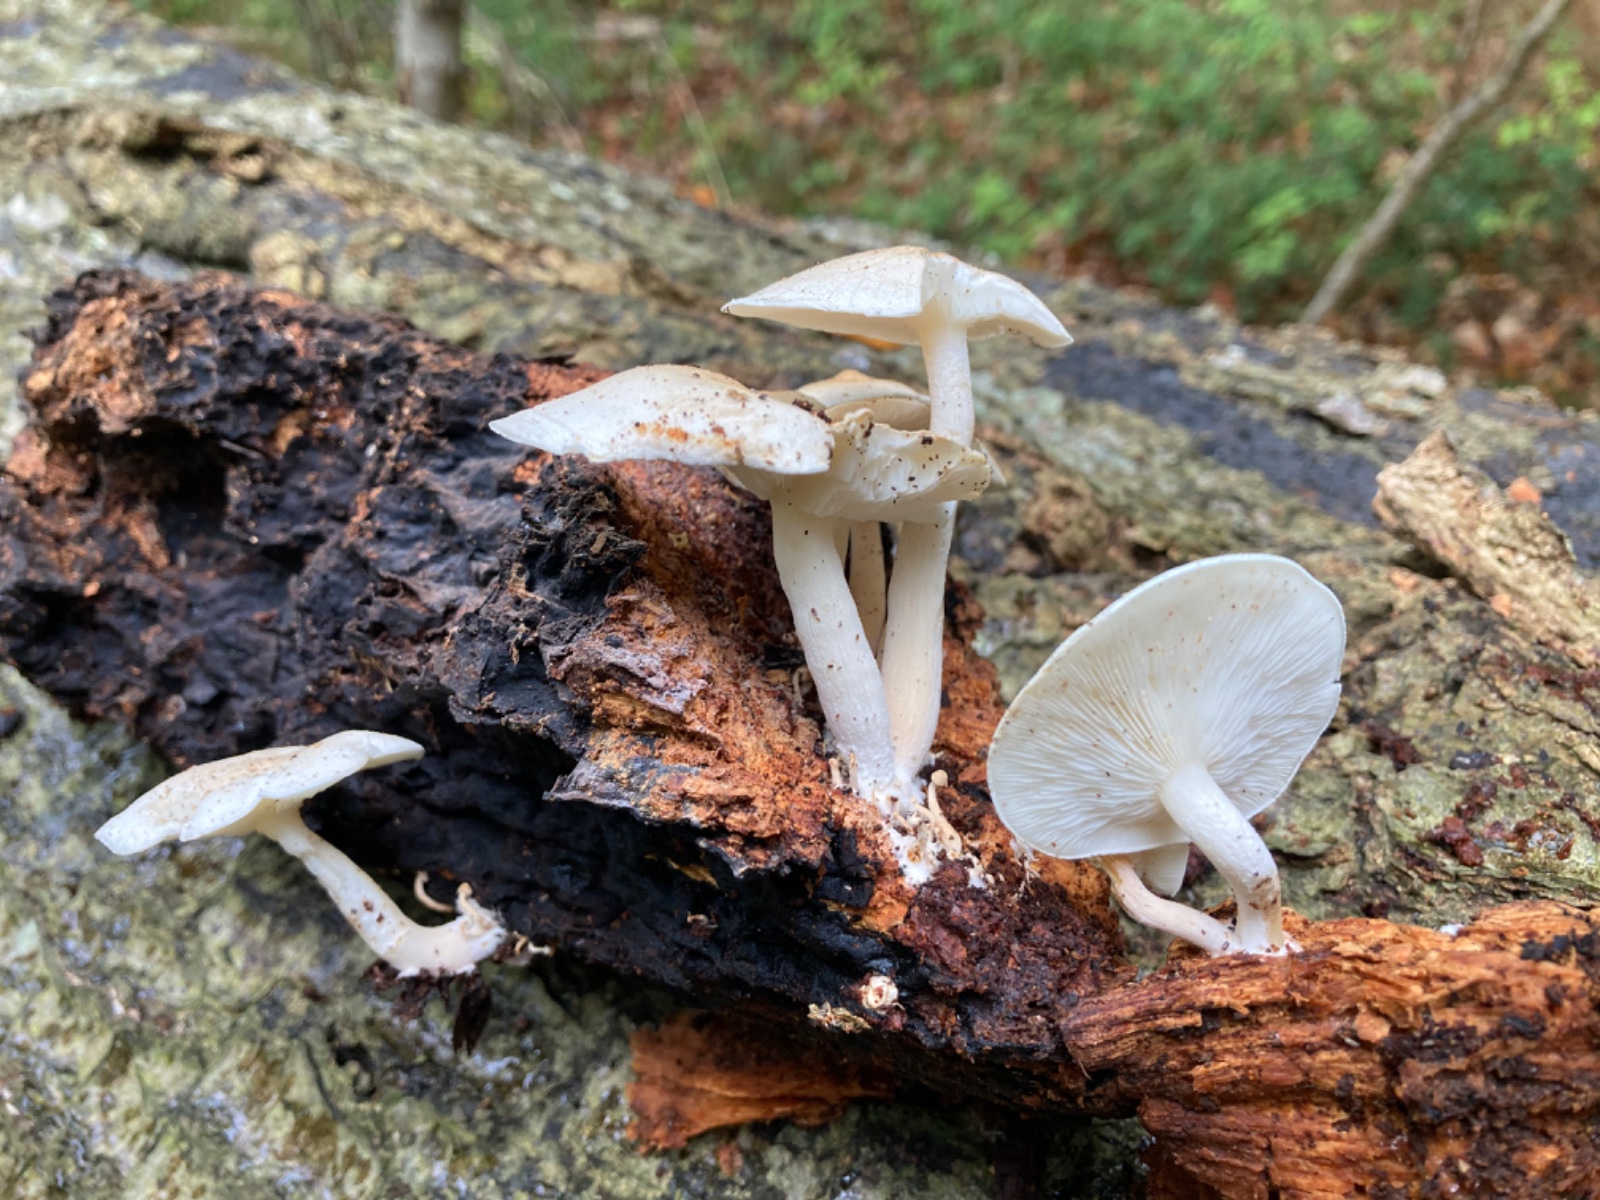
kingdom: Fungi
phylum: Basidiomycota
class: Agaricomycetes
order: Agaricales
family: Lyophyllaceae
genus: Ossicaulis
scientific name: Ossicaulis lignatilis
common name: hvidlig vedtragthat
